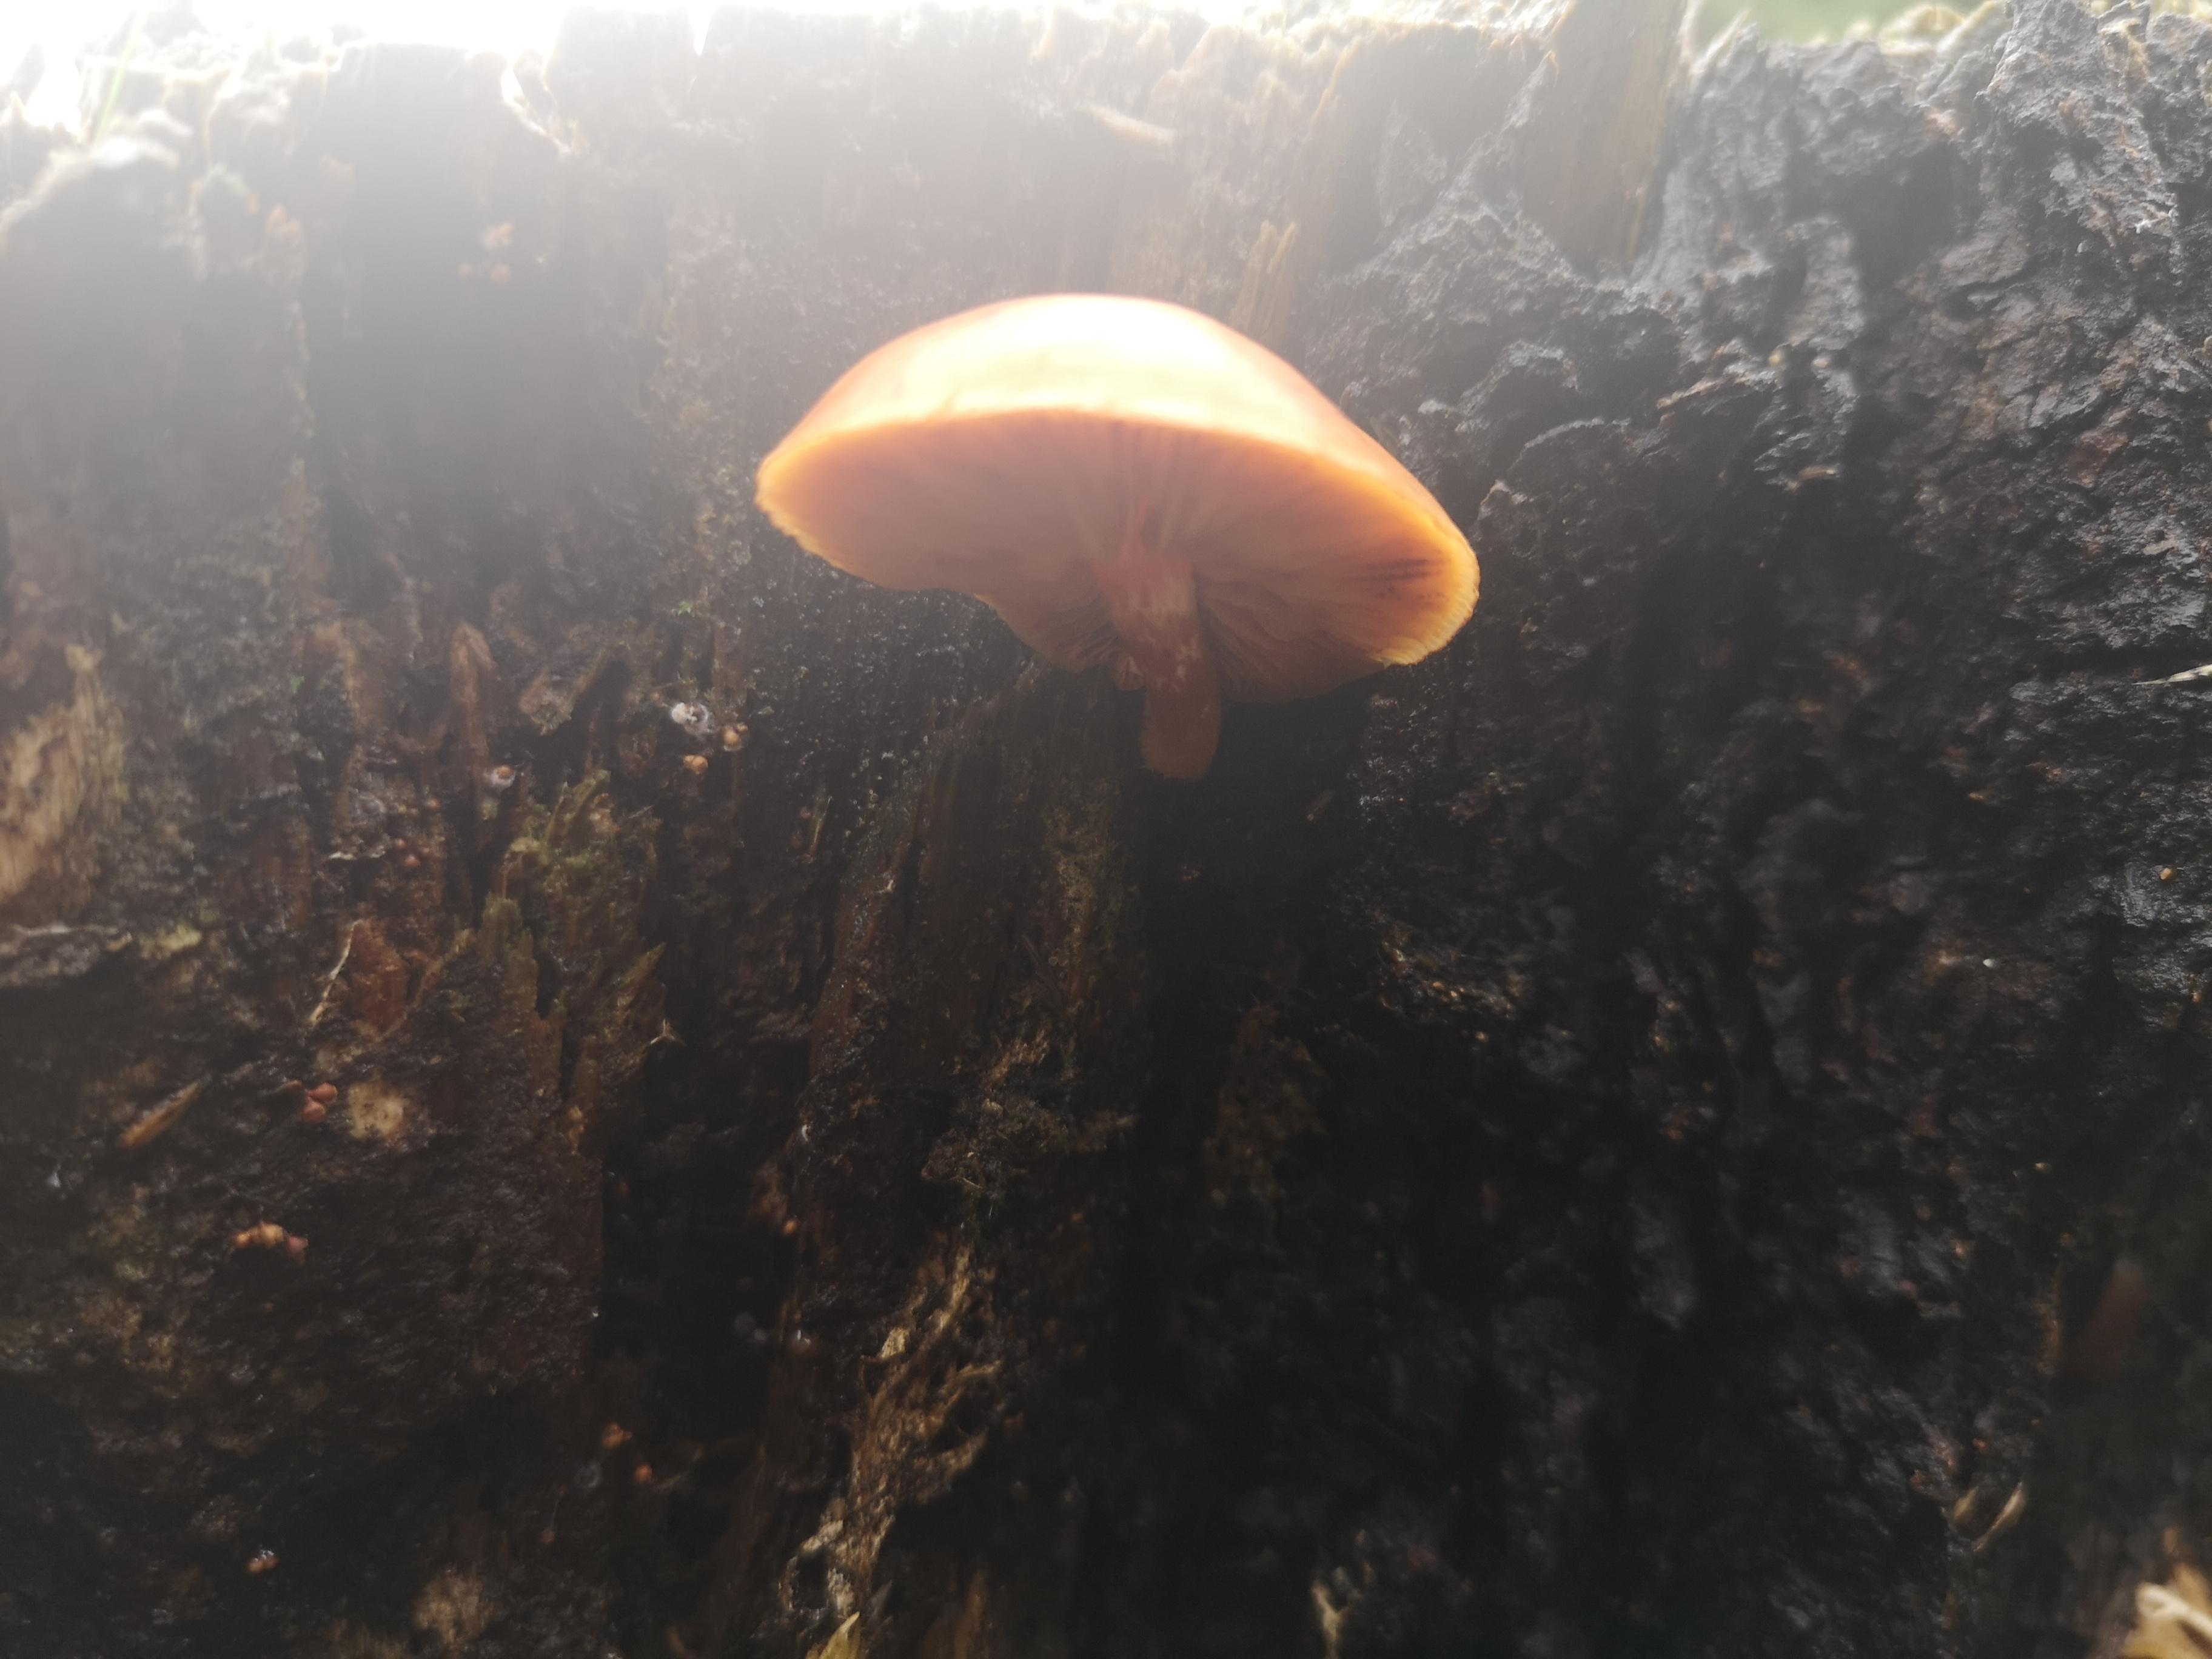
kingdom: Fungi
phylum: Basidiomycota
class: Agaricomycetes
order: Agaricales
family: Tubariaceae
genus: Tubaria
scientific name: Tubaria furfuracea
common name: kliddet fnughat
